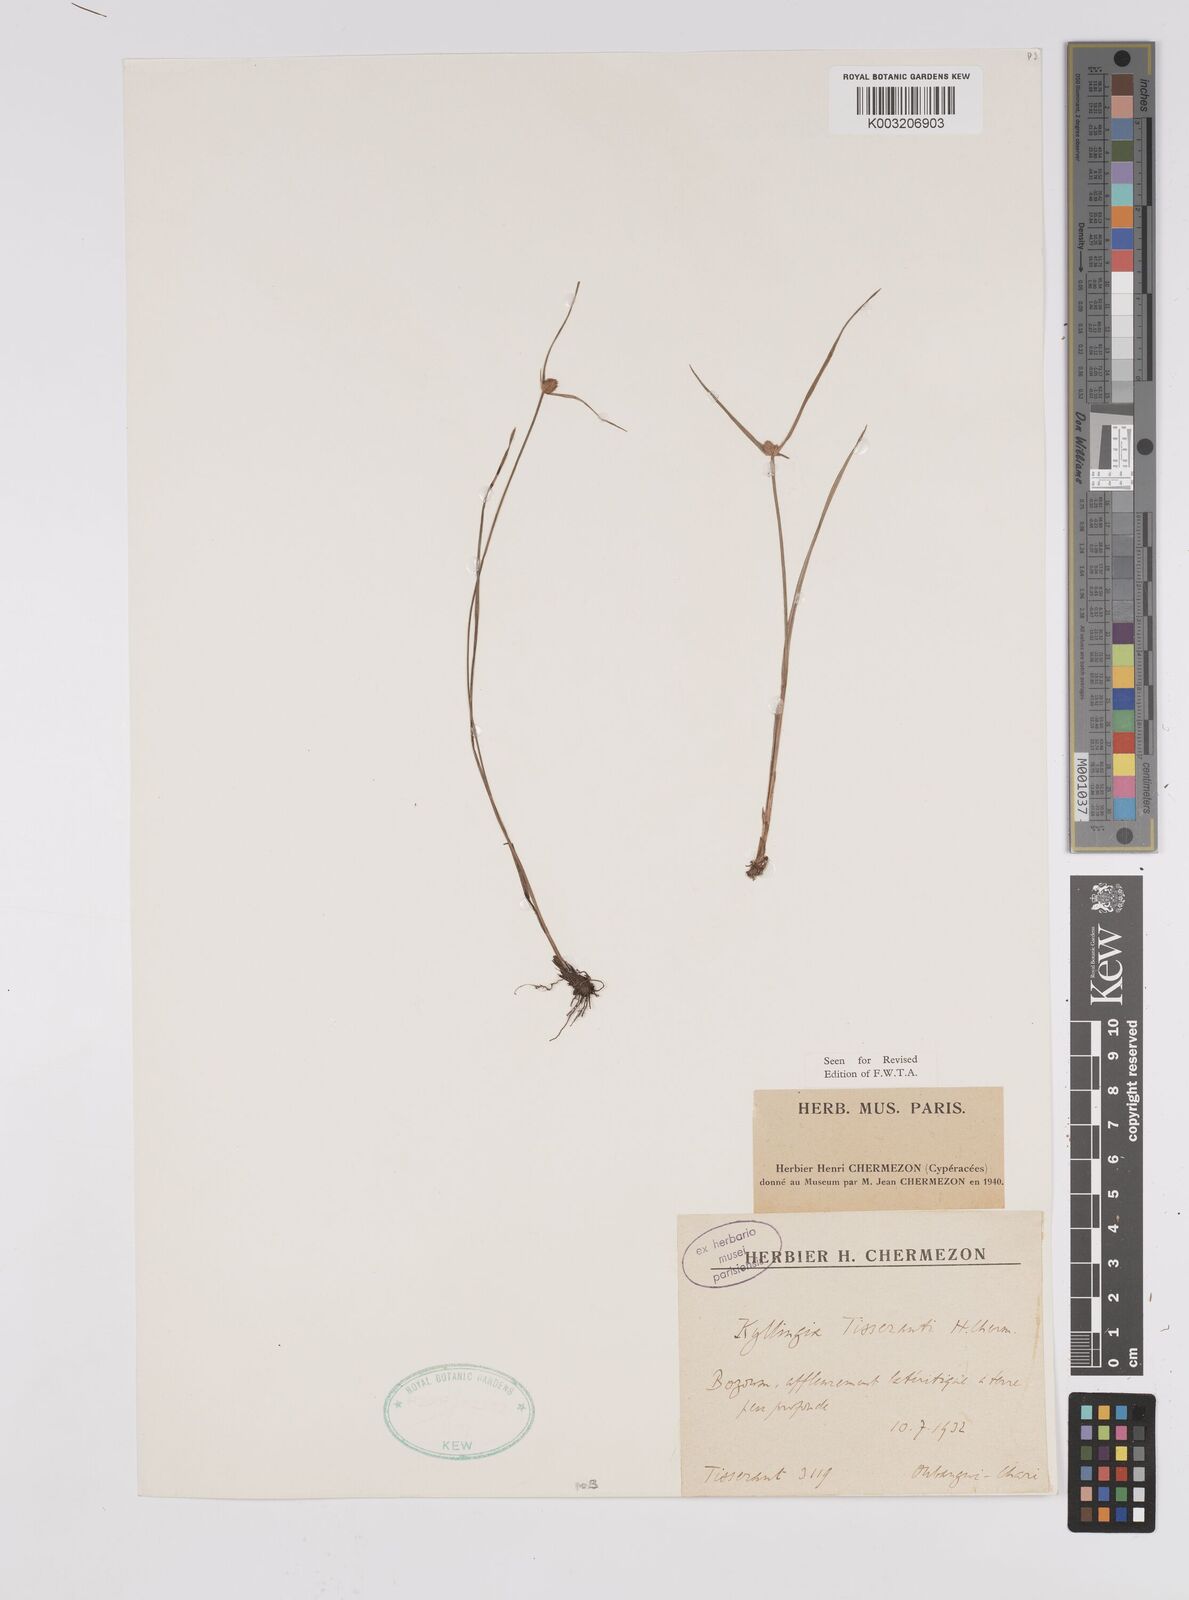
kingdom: Plantae
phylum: Tracheophyta
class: Liliopsida
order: Poales
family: Cyperaceae
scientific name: Cyperaceae
